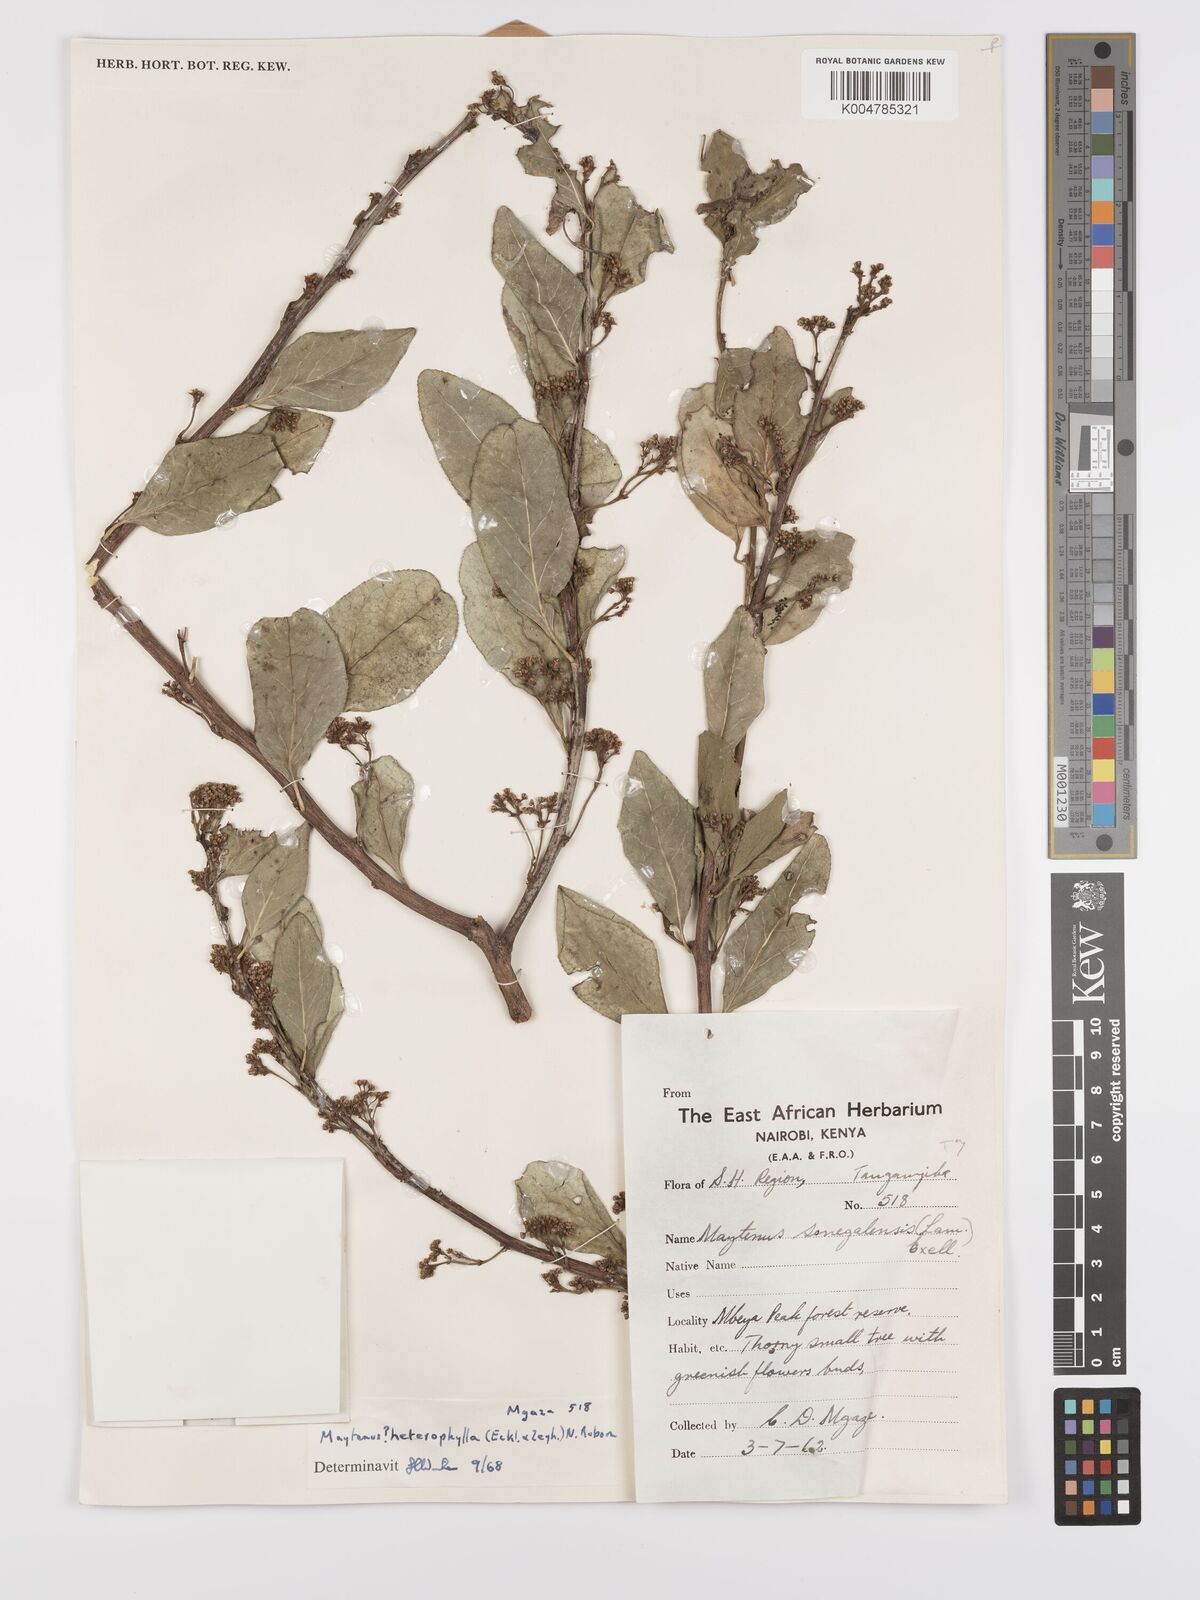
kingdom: Plantae
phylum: Tracheophyta
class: Magnoliopsida
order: Celastrales
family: Celastraceae
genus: Gymnosporia
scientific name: Gymnosporia heterophylla
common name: Angle-stem spikethorn
